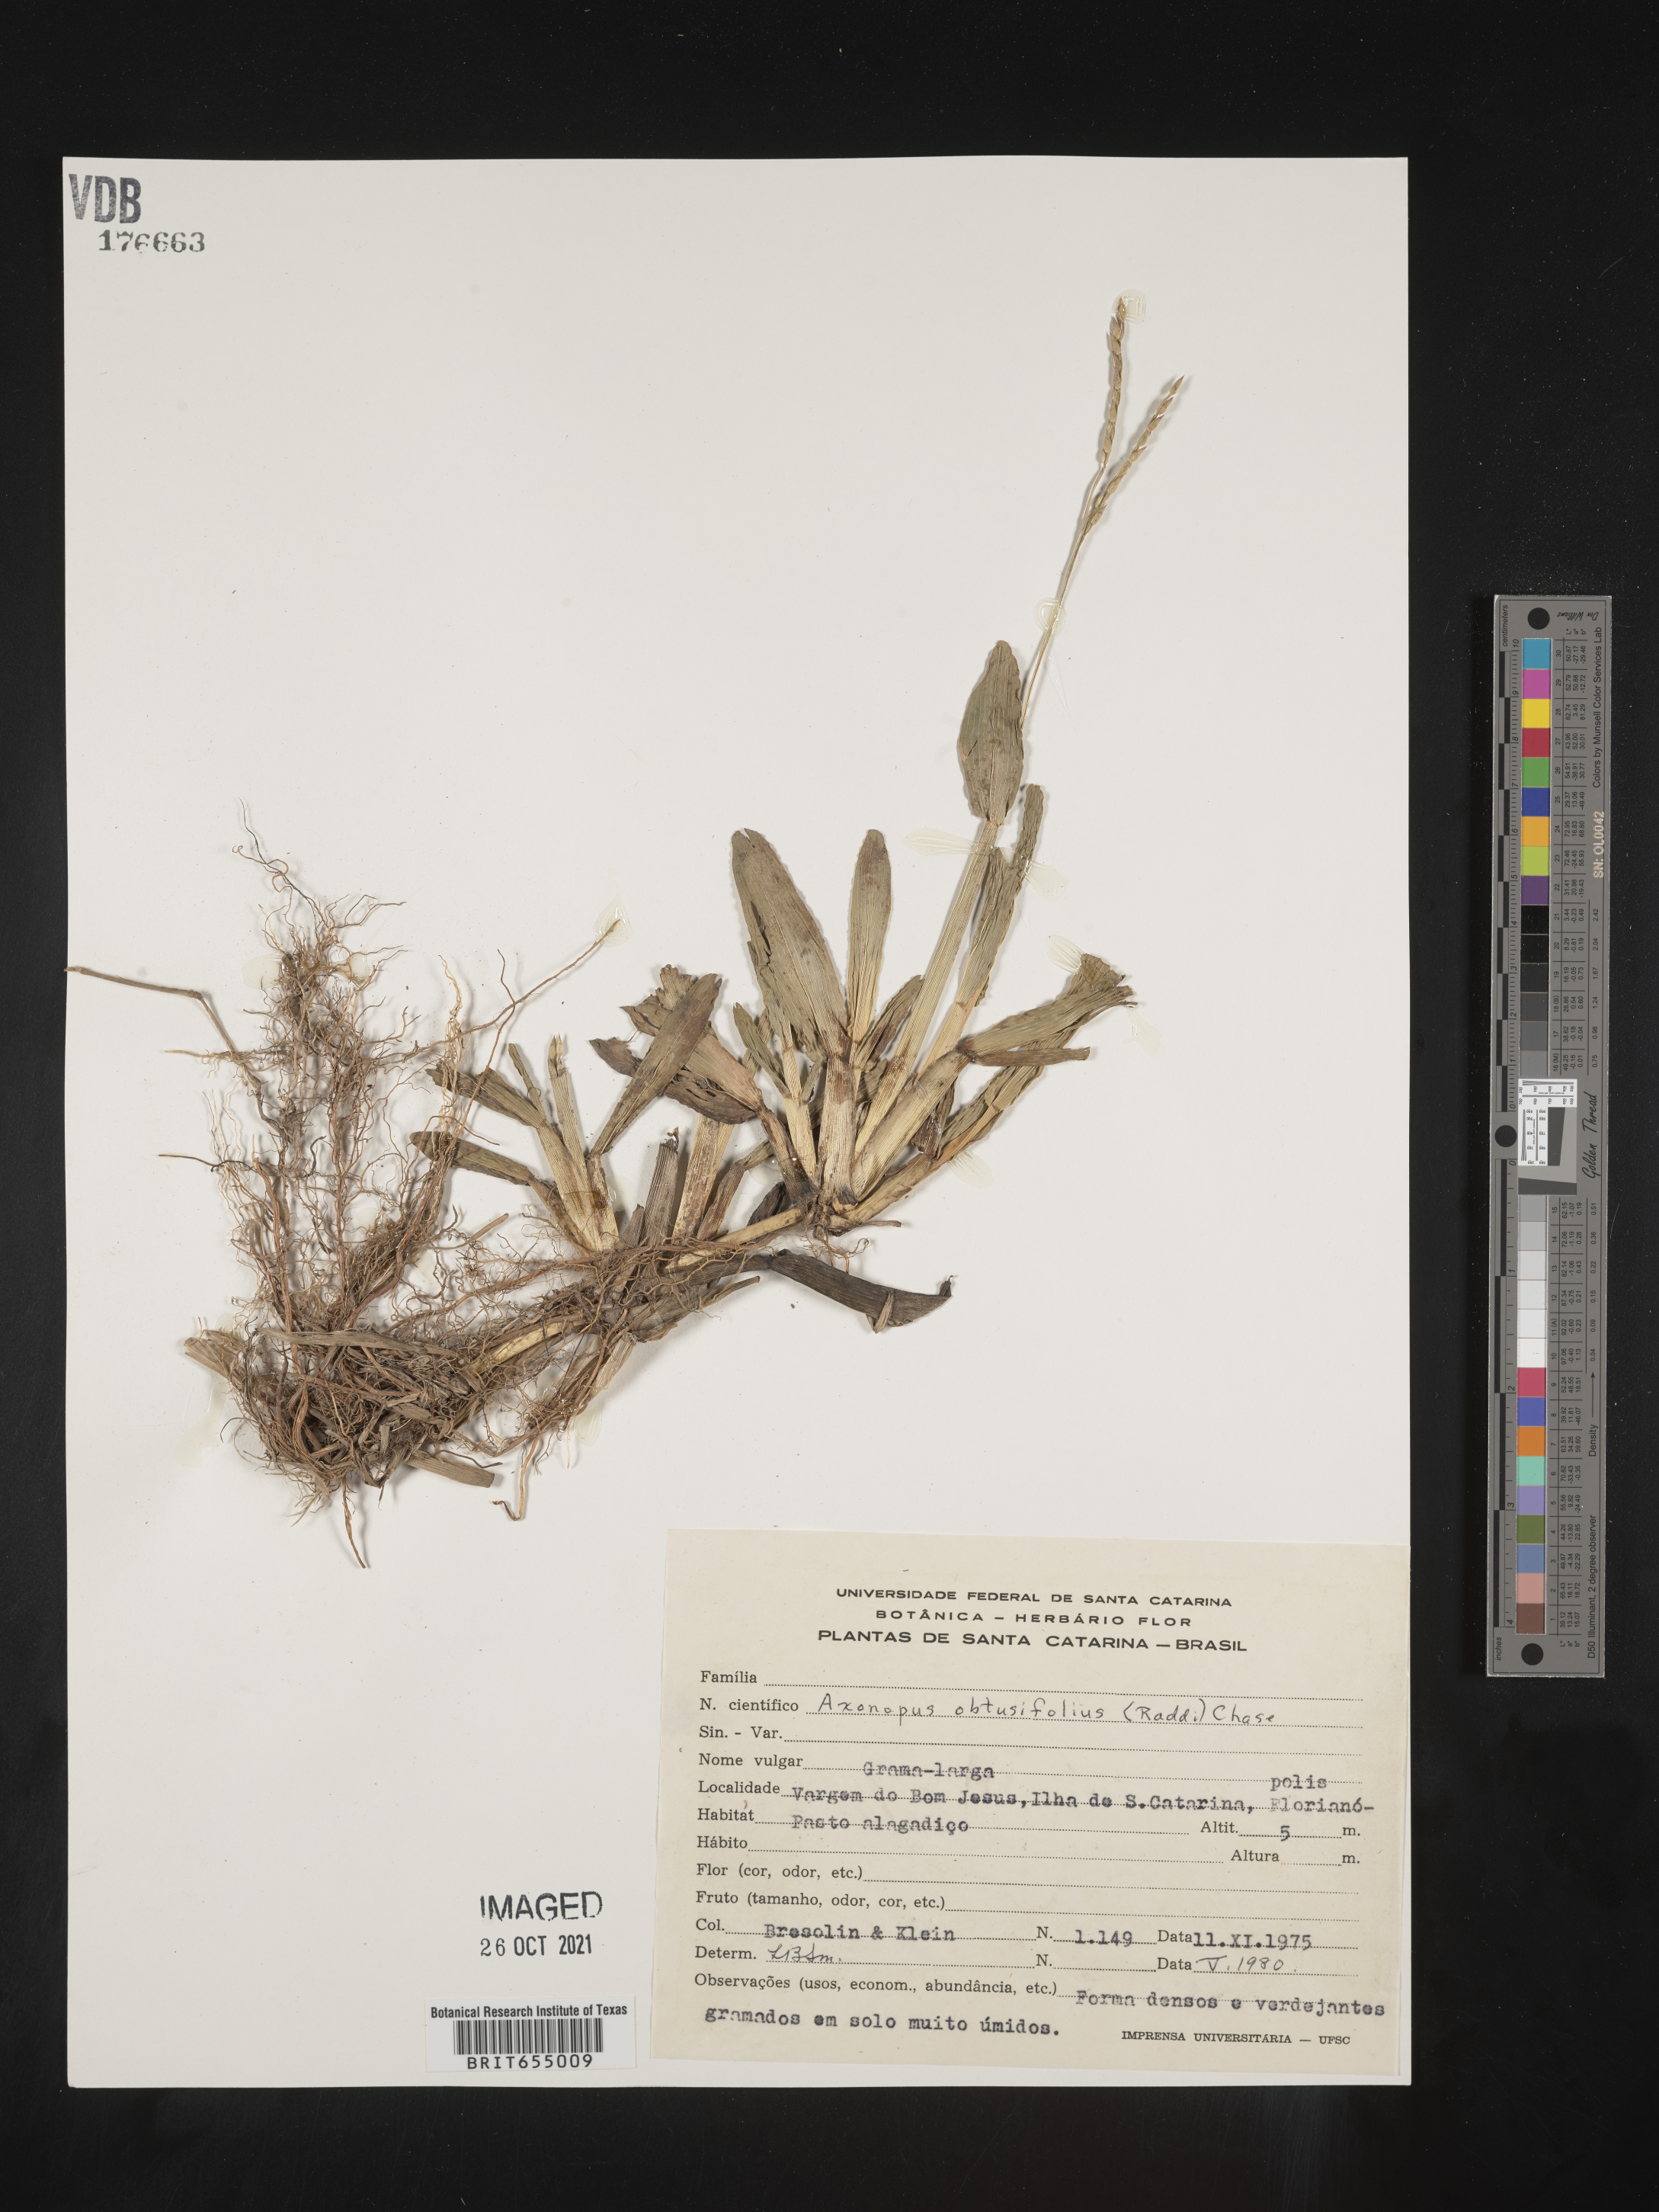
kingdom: Plantae
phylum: Tracheophyta
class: Liliopsida
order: Poales
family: Poaceae
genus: Axonopus
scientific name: Axonopus
